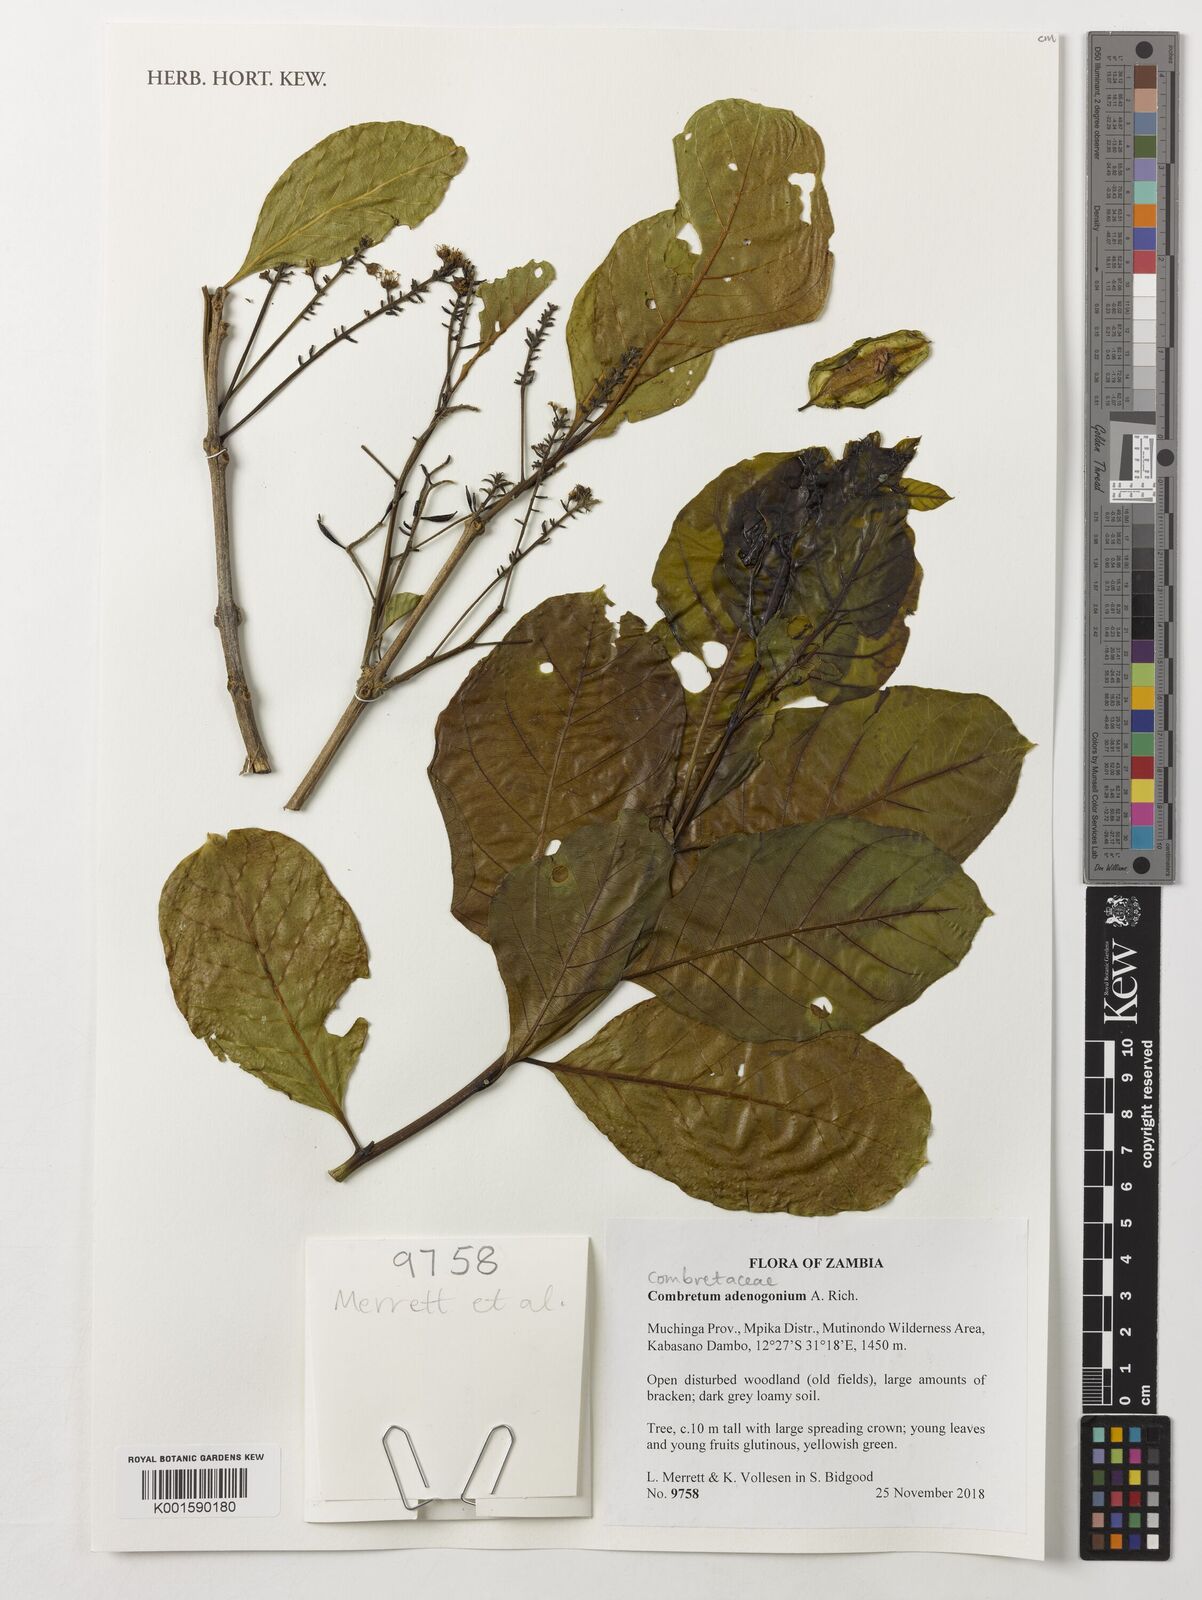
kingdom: Plantae
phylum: Tracheophyta
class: Magnoliopsida
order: Myrtales
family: Combretaceae
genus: Combretum
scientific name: Combretum adenogonium
